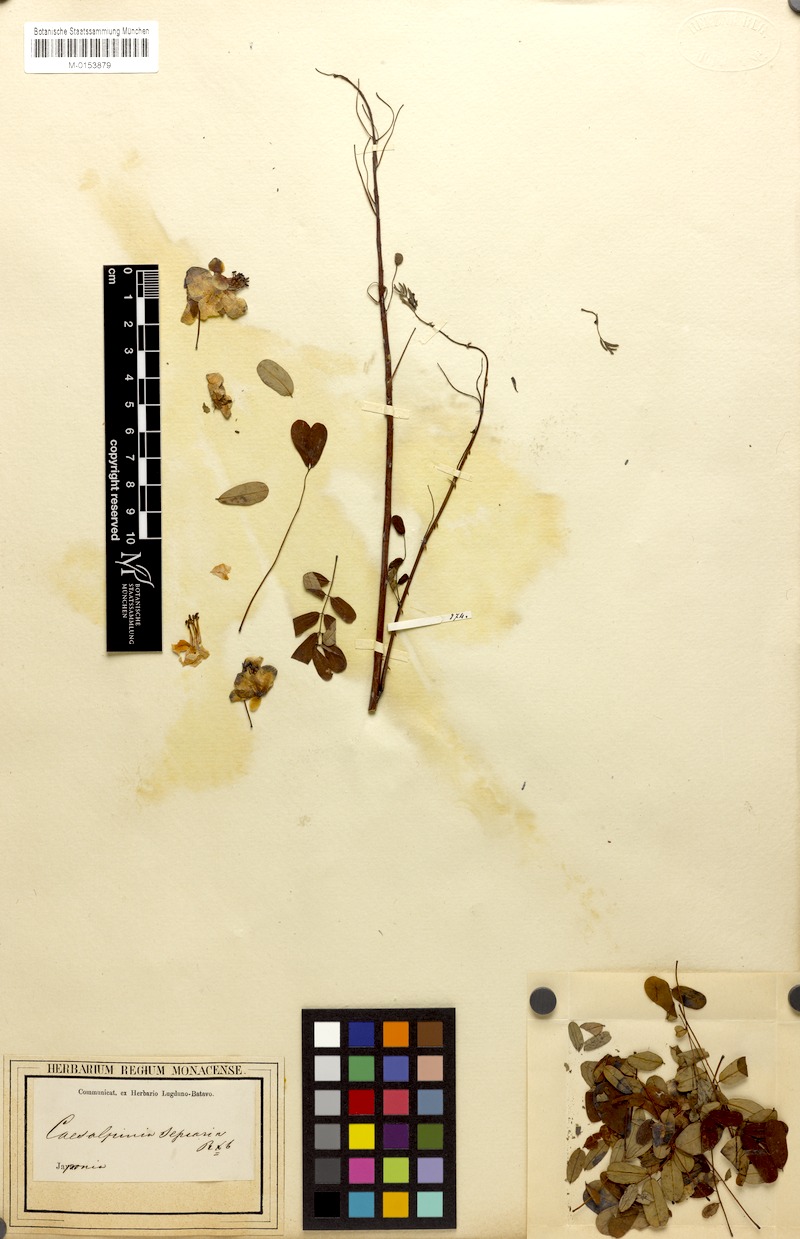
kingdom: Plantae
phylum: Tracheophyta
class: Magnoliopsida
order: Fabales
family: Fabaceae
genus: Biancaea
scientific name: Biancaea decapetala
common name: Cat's claw
